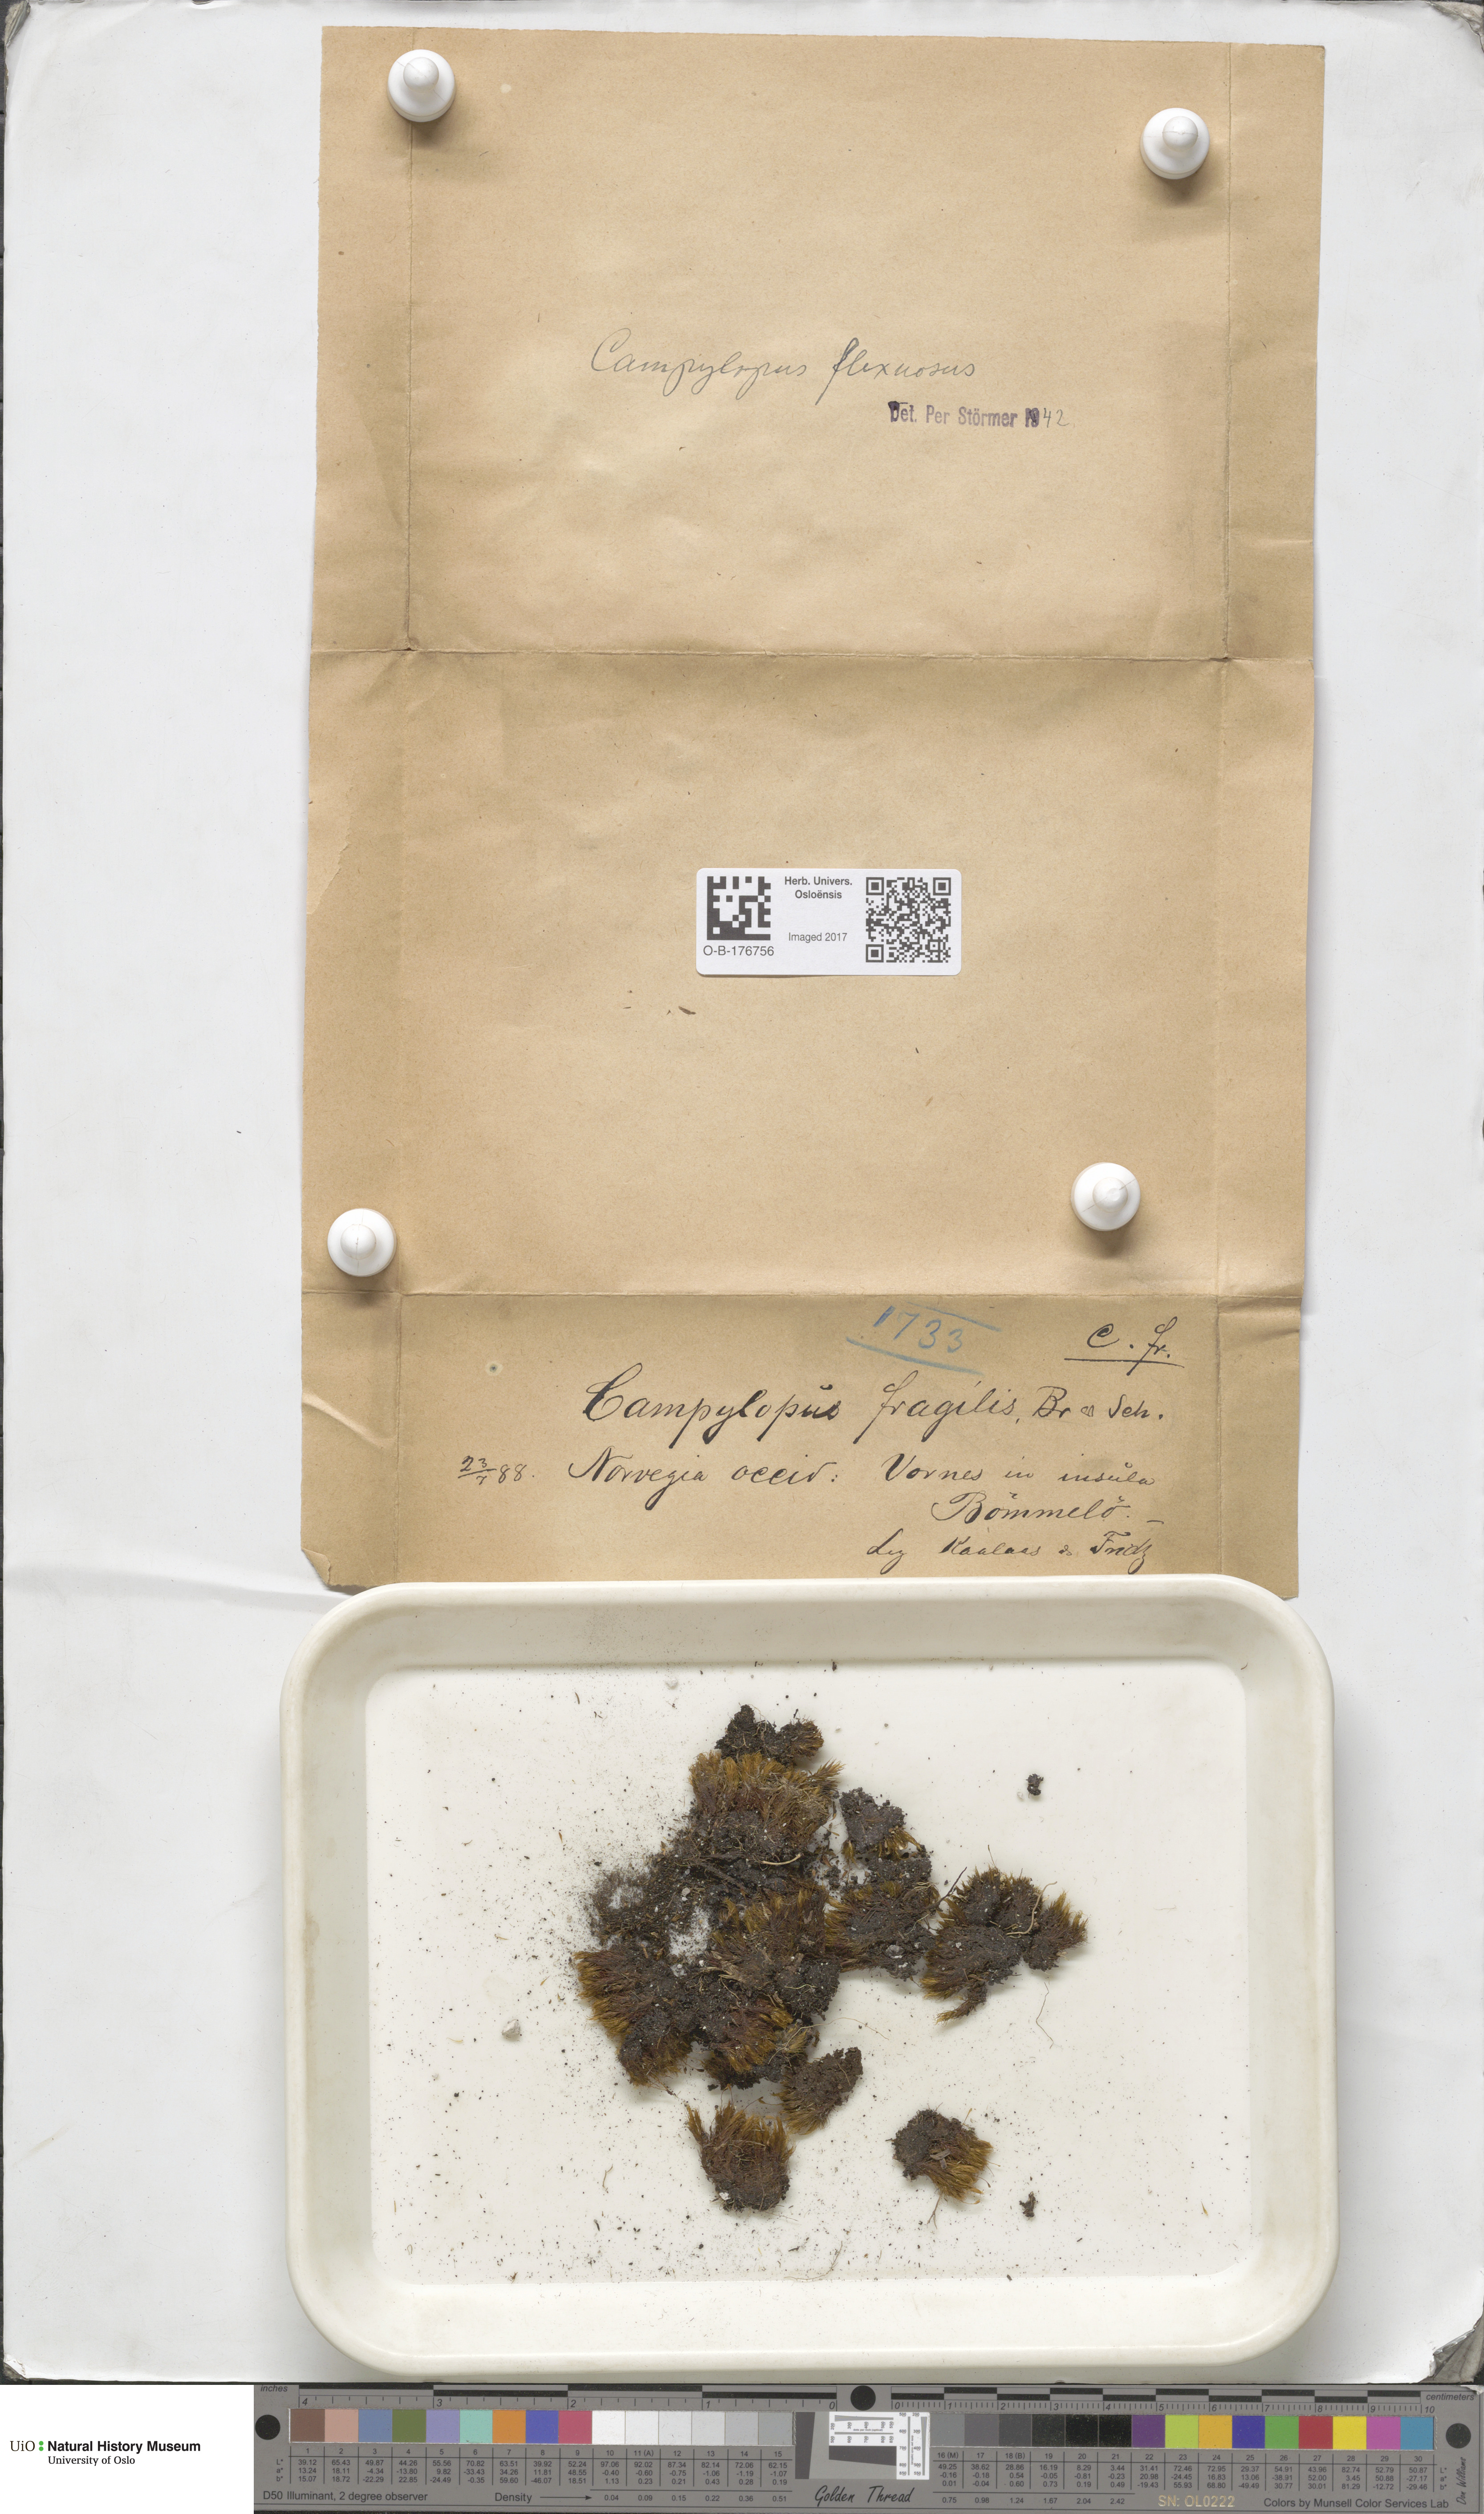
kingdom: Plantae
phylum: Bryophyta
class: Bryopsida
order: Dicranales
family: Leucobryaceae
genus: Campylopus
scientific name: Campylopus flexuosus
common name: Rusty swan-neck moss
